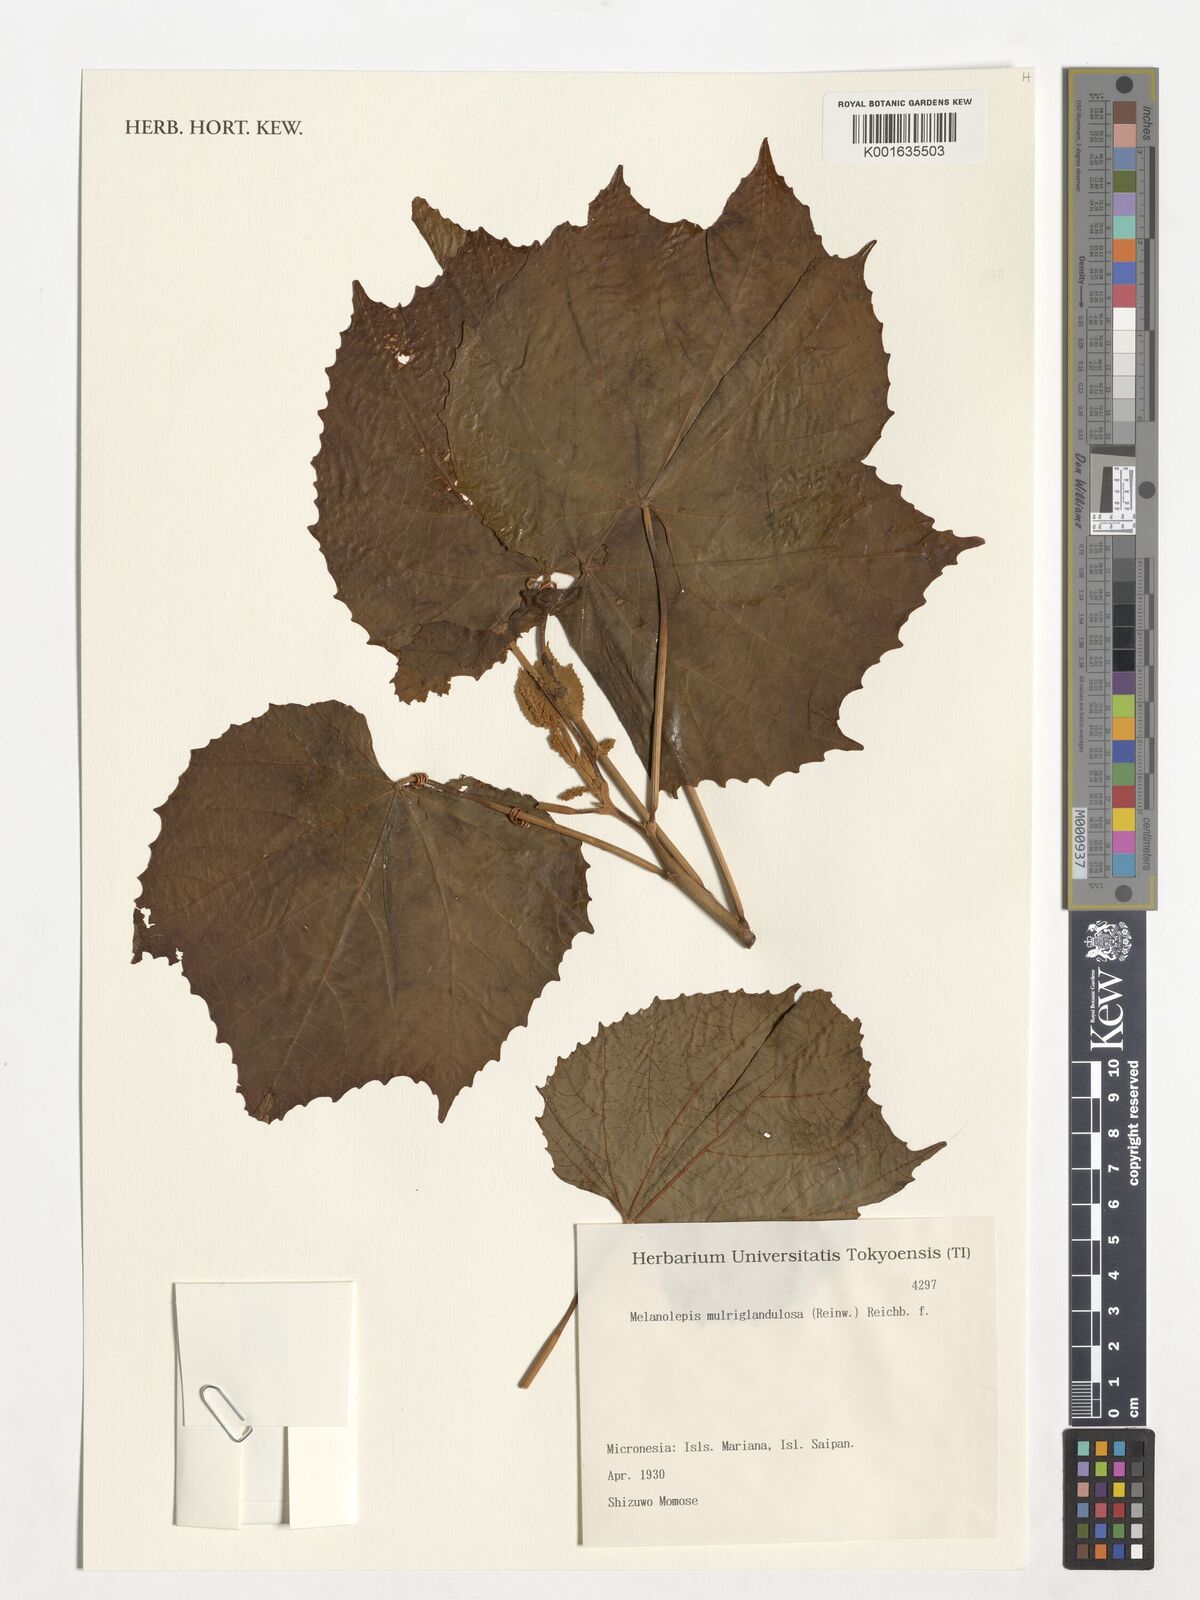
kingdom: Plantae
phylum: Tracheophyta
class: Magnoliopsida
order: Malpighiales
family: Euphorbiaceae
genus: Melanolepis
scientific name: Melanolepis multiglandulosa
